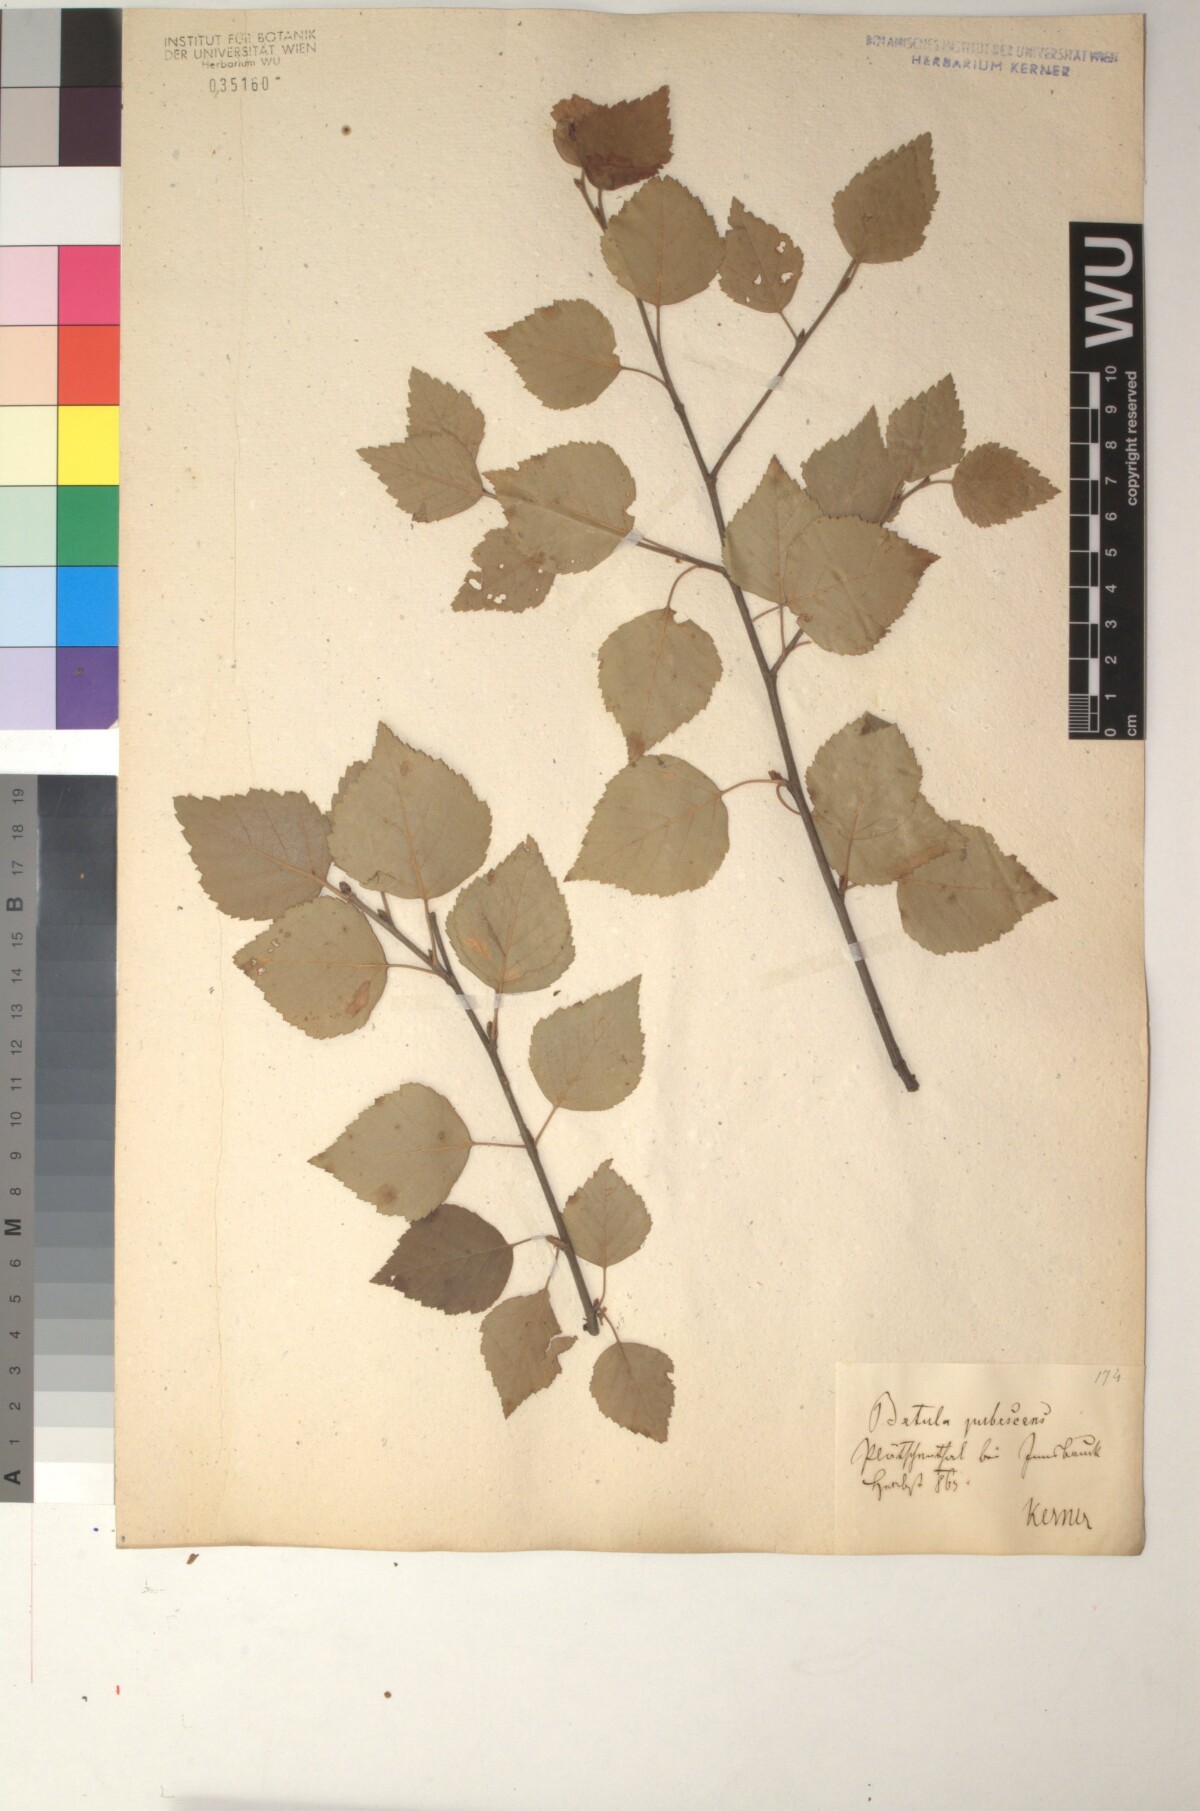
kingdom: Plantae
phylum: Tracheophyta
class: Magnoliopsida
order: Fagales
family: Betulaceae
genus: Betula
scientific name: Betula pubescens
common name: Downy birch
